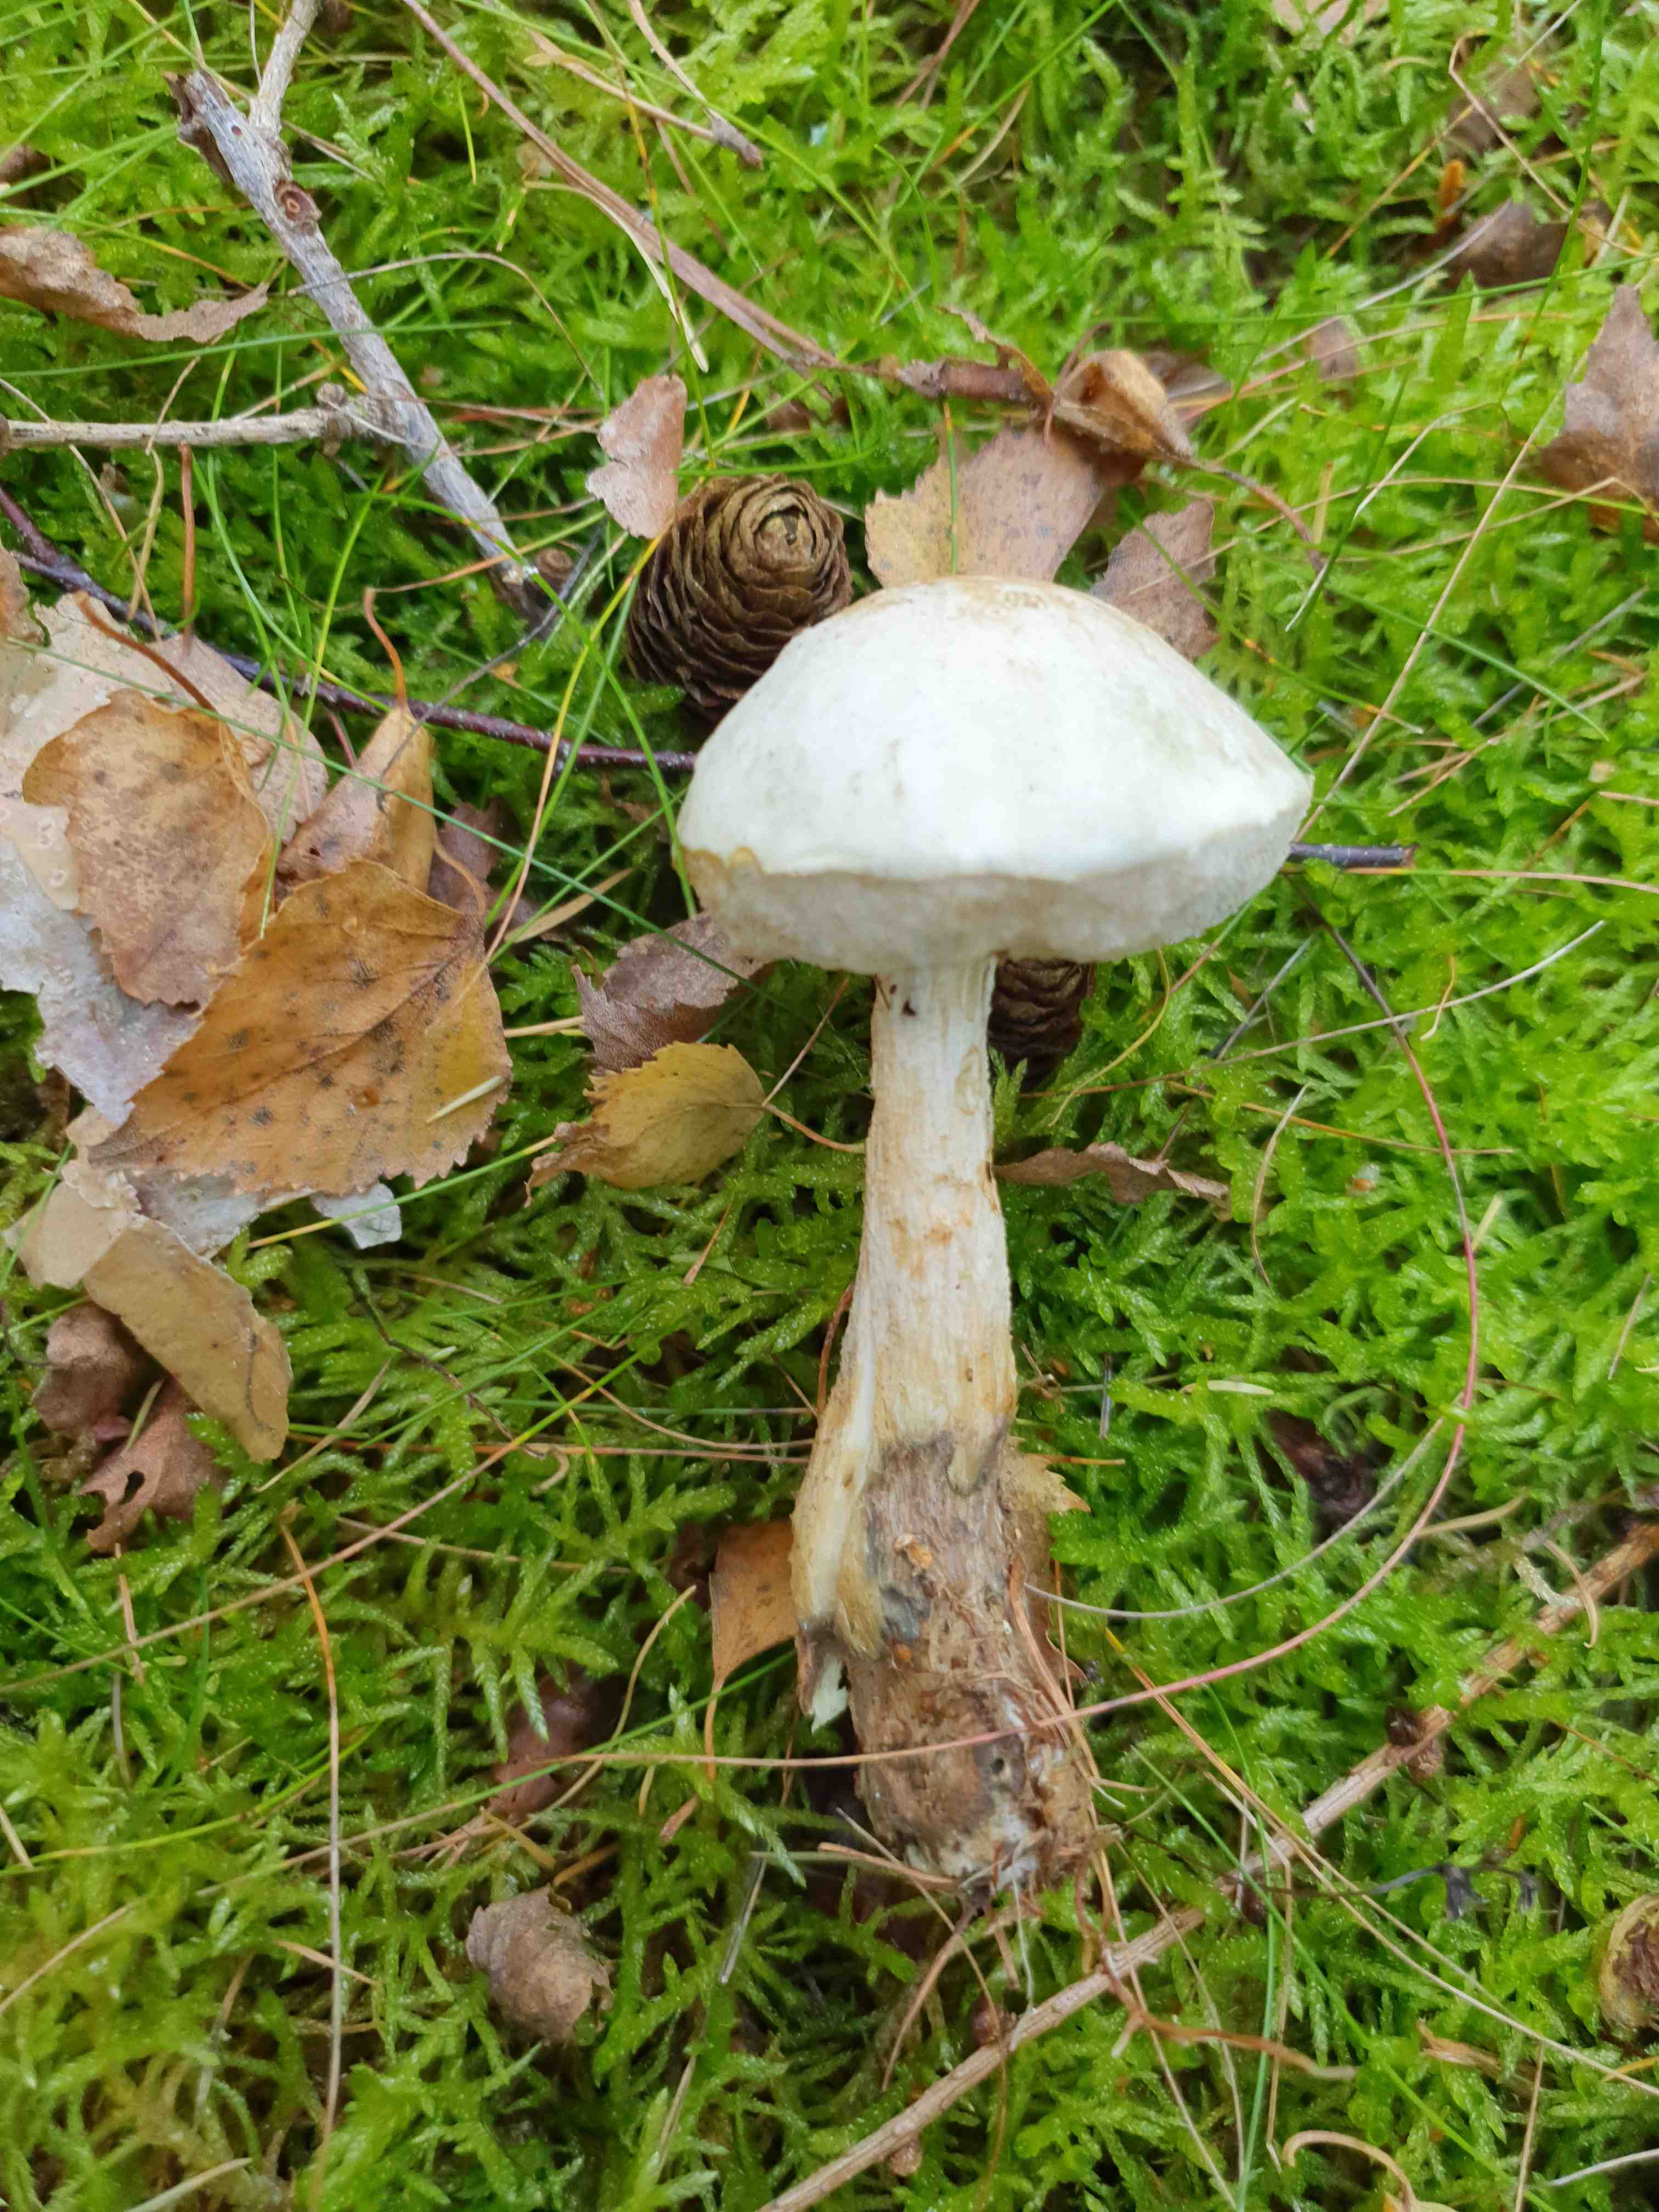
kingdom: Fungi
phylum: Basidiomycota
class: Agaricomycetes
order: Boletales
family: Boletaceae
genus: Leccinum
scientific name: Leccinum scabrum
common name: hvid skælrørhat
